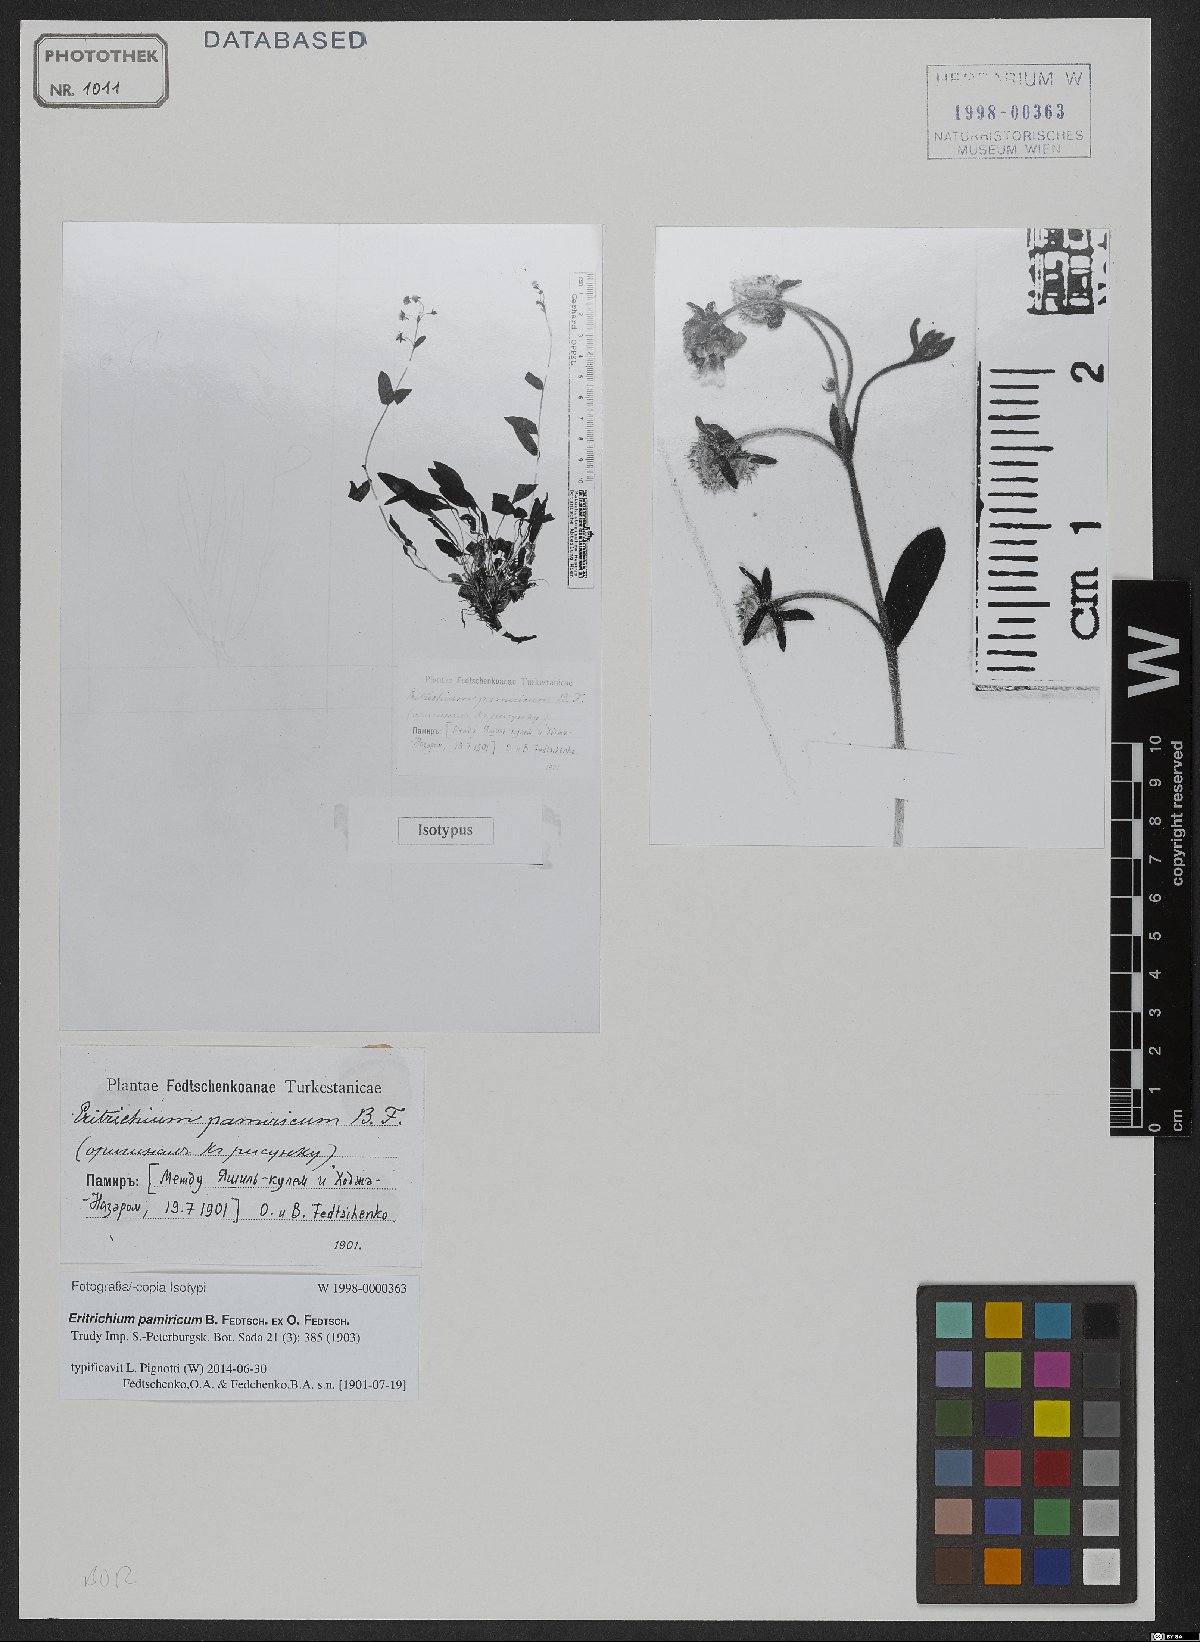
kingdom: Plantae
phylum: Tracheophyta
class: Magnoliopsida
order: Boraginales
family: Boraginaceae
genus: Eritrichium
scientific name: Eritrichium pamiricum
